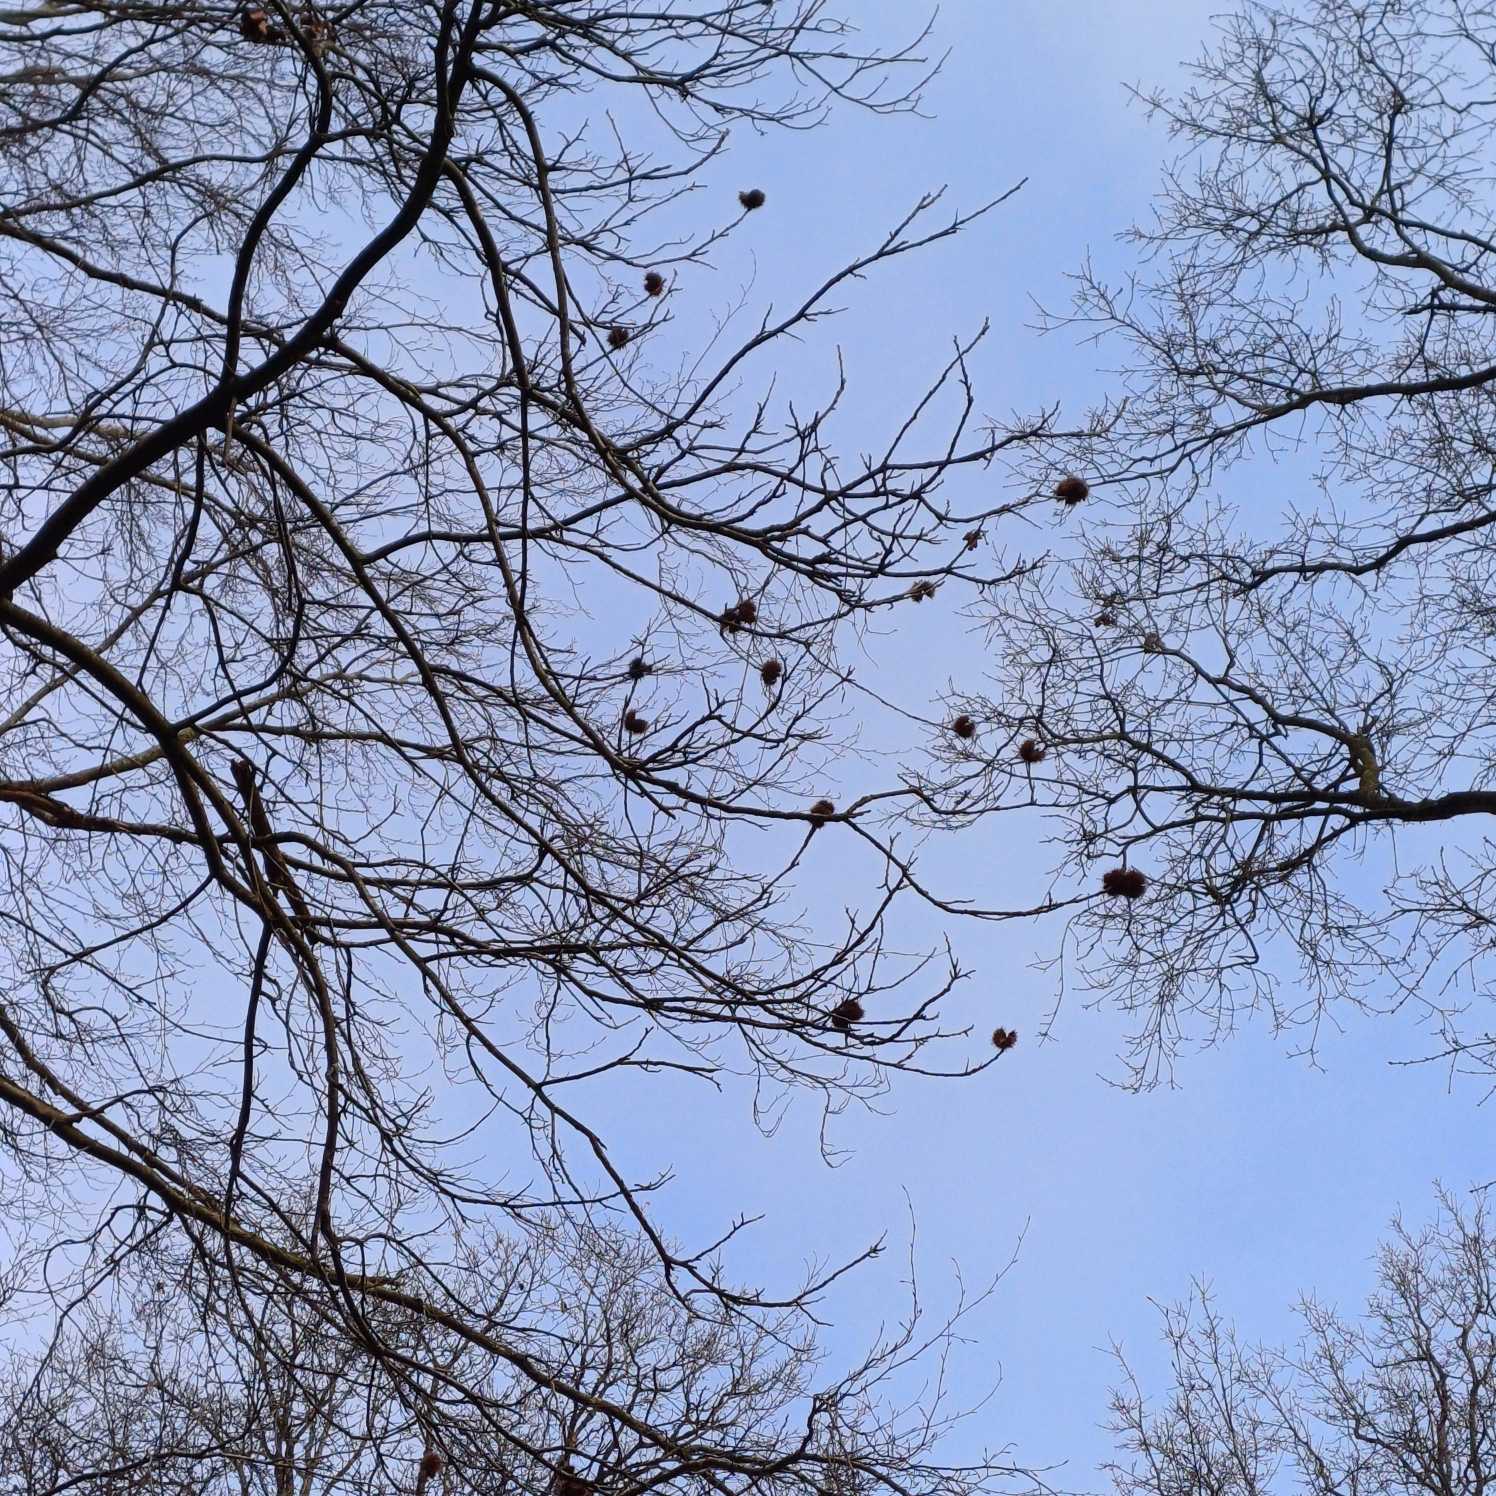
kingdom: Plantae
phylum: Tracheophyta
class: Magnoliopsida
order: Fagales
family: Fagaceae
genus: Castanea
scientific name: Castanea sativa
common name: Ægte kastanie
